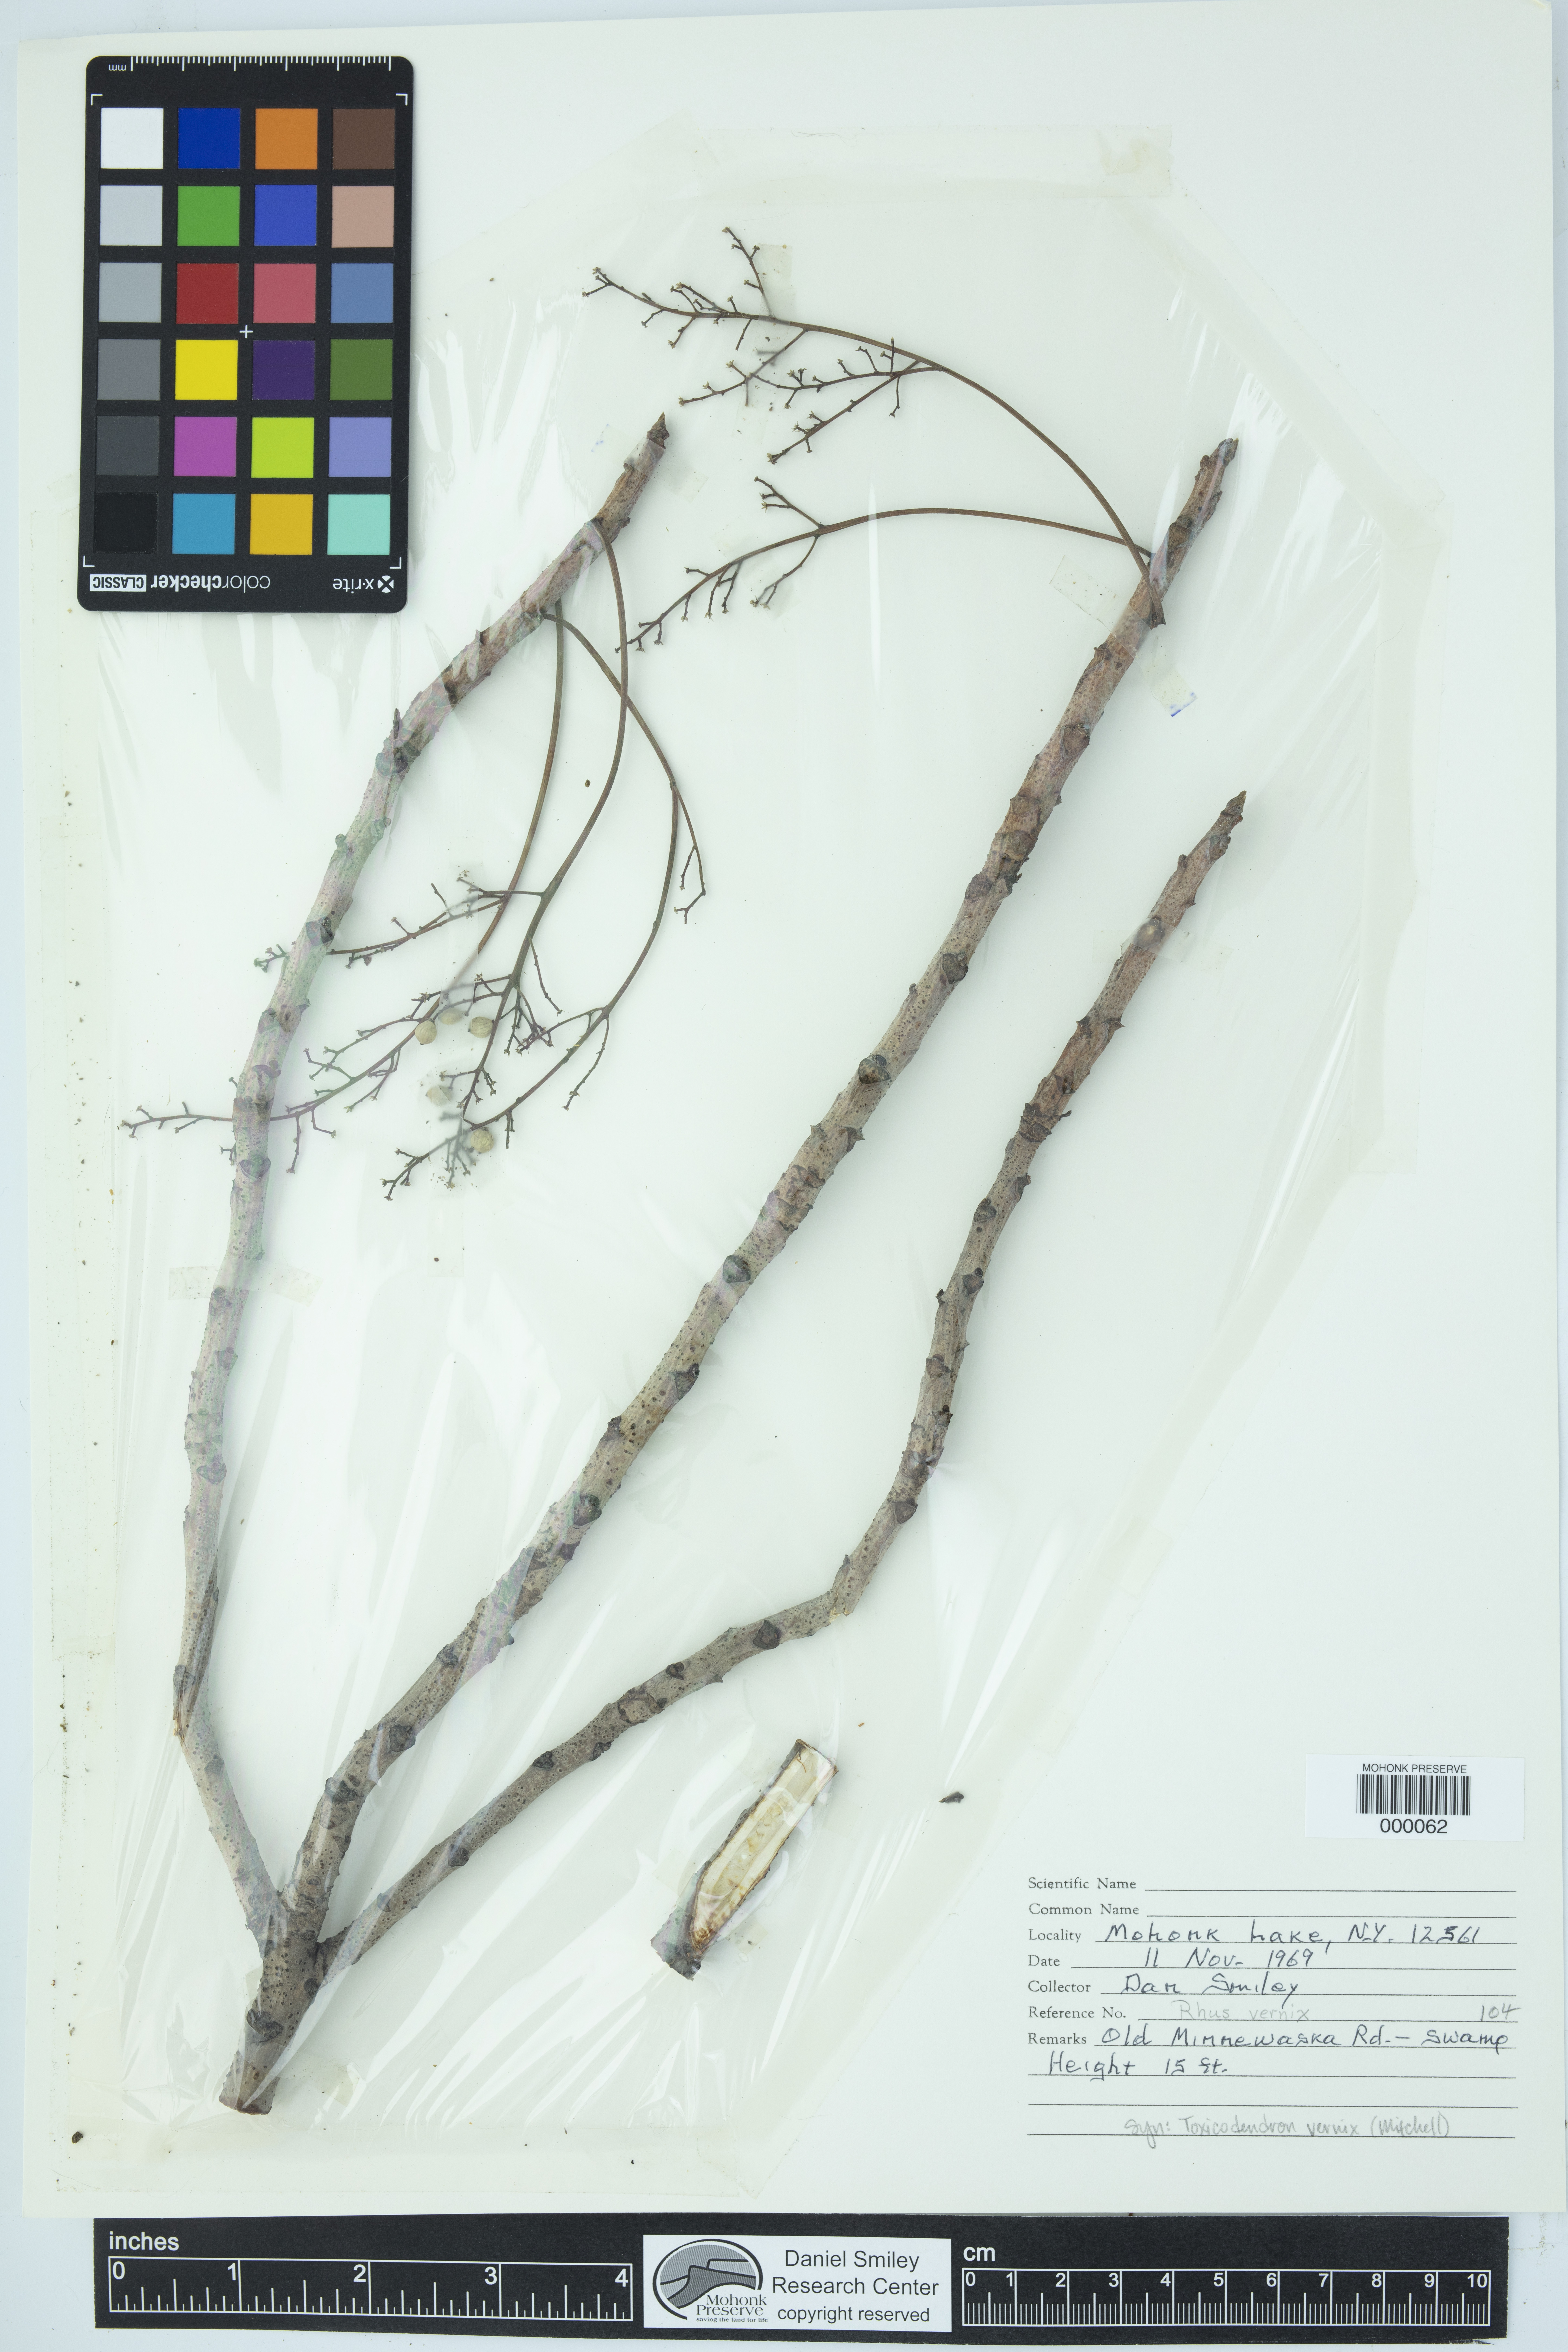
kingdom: Plantae
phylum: Tracheophyta
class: Magnoliopsida
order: Sapindales
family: Anacardiaceae
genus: Toxicodendron
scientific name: Toxicodendron vernix
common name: Poison sumac
